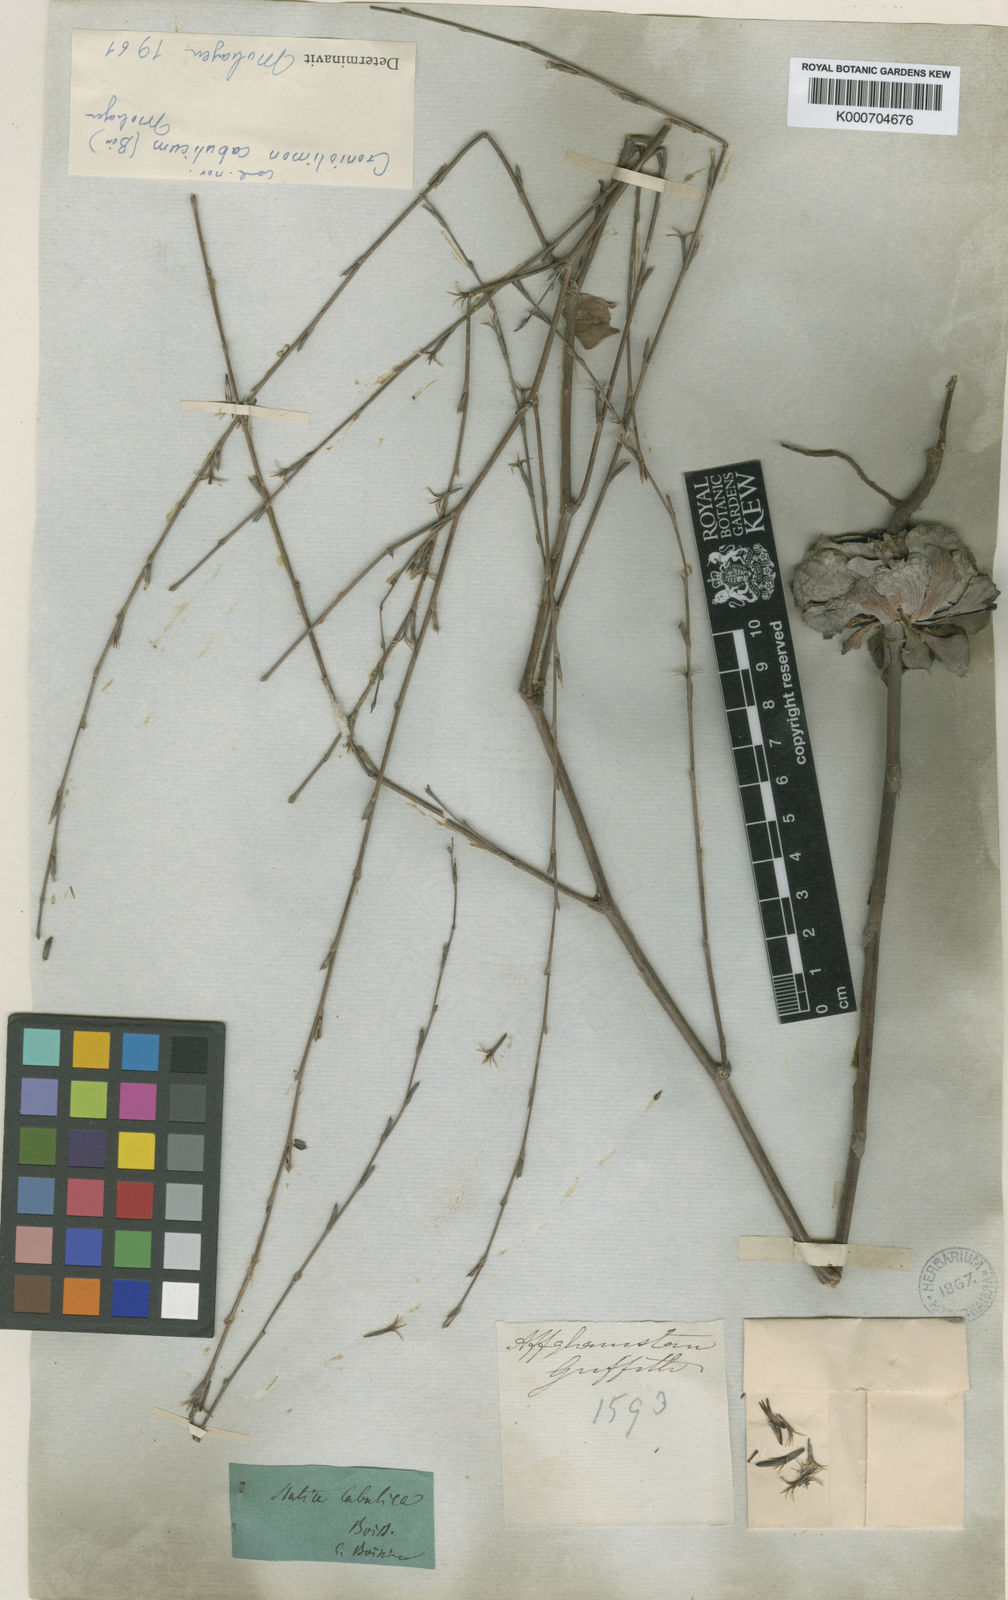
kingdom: Plantae
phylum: Tracheophyta
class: Magnoliopsida
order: Caryophyllales
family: Plumbaginaceae
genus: Bukiniczia
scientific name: Bukiniczia cabulica
